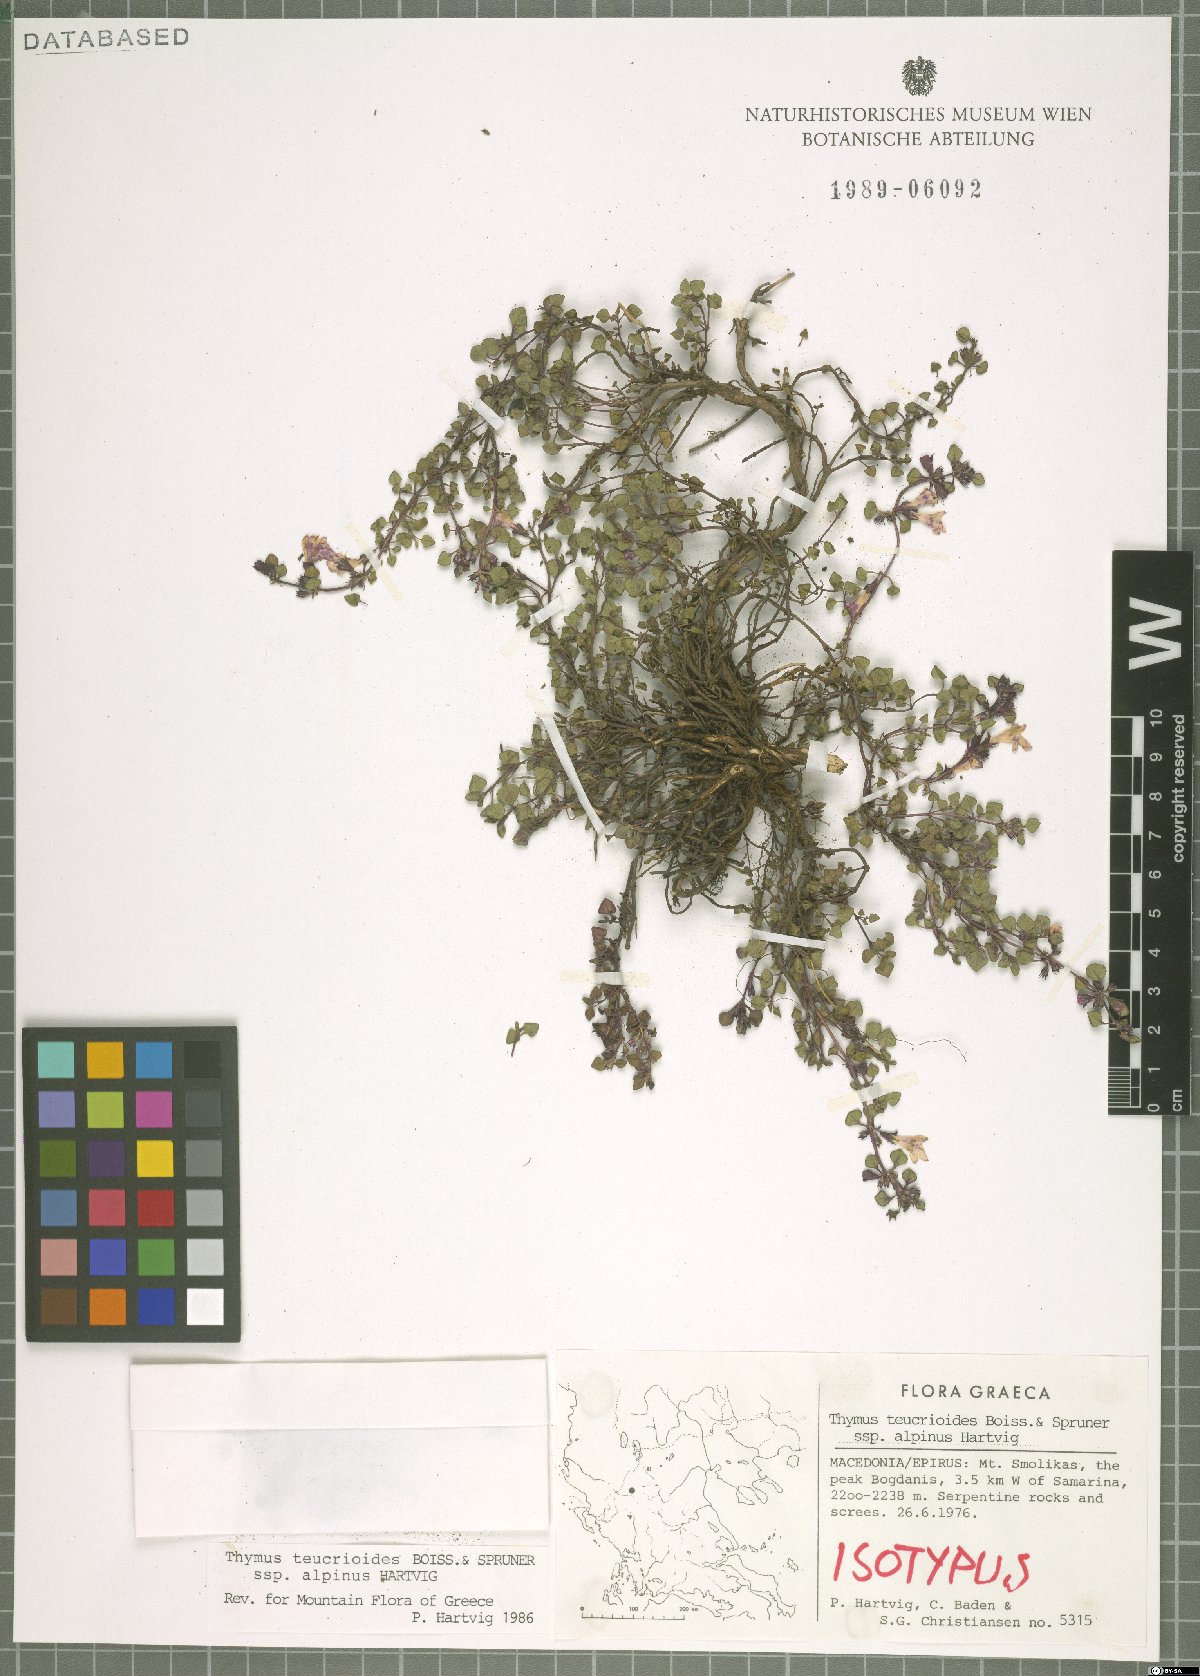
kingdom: Plantae
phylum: Tracheophyta
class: Magnoliopsida
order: Lamiales
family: Lamiaceae
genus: Thymus
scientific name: Thymus teucrioides
